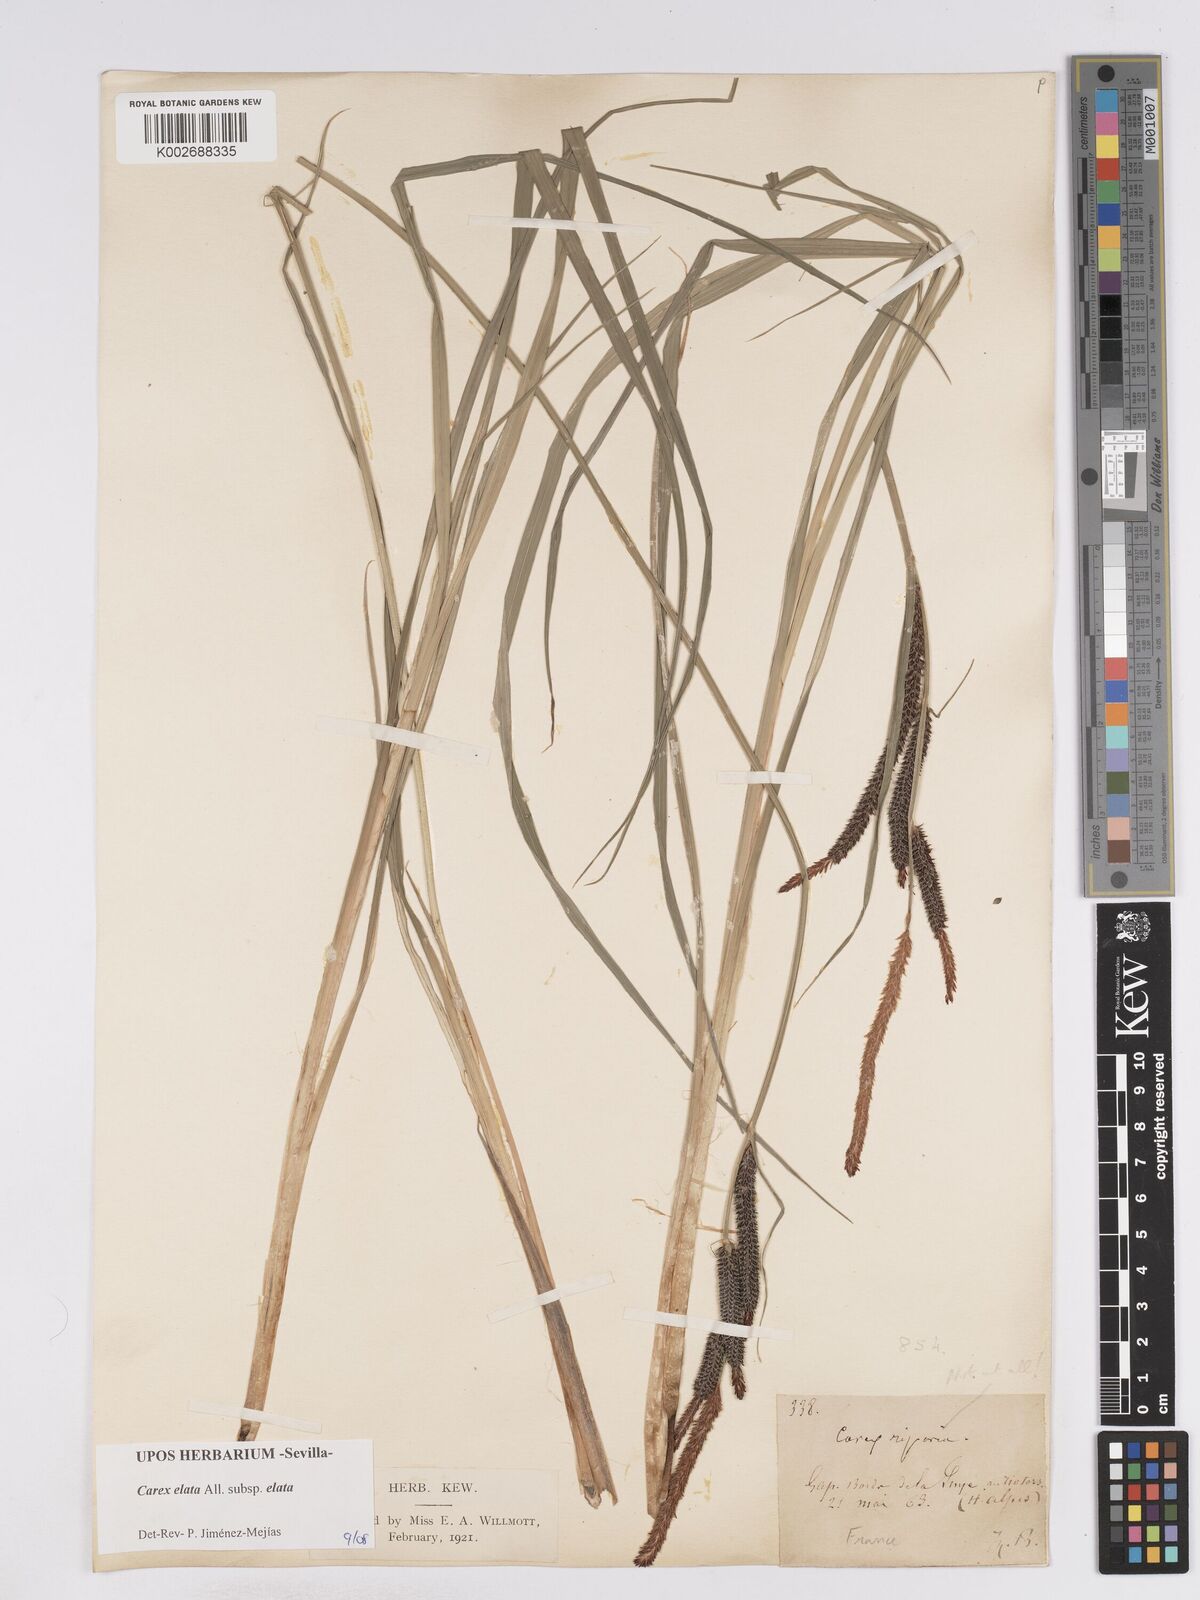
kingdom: Plantae
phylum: Tracheophyta
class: Liliopsida
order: Poales
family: Cyperaceae
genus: Carex
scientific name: Carex elata
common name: Tufted sedge
